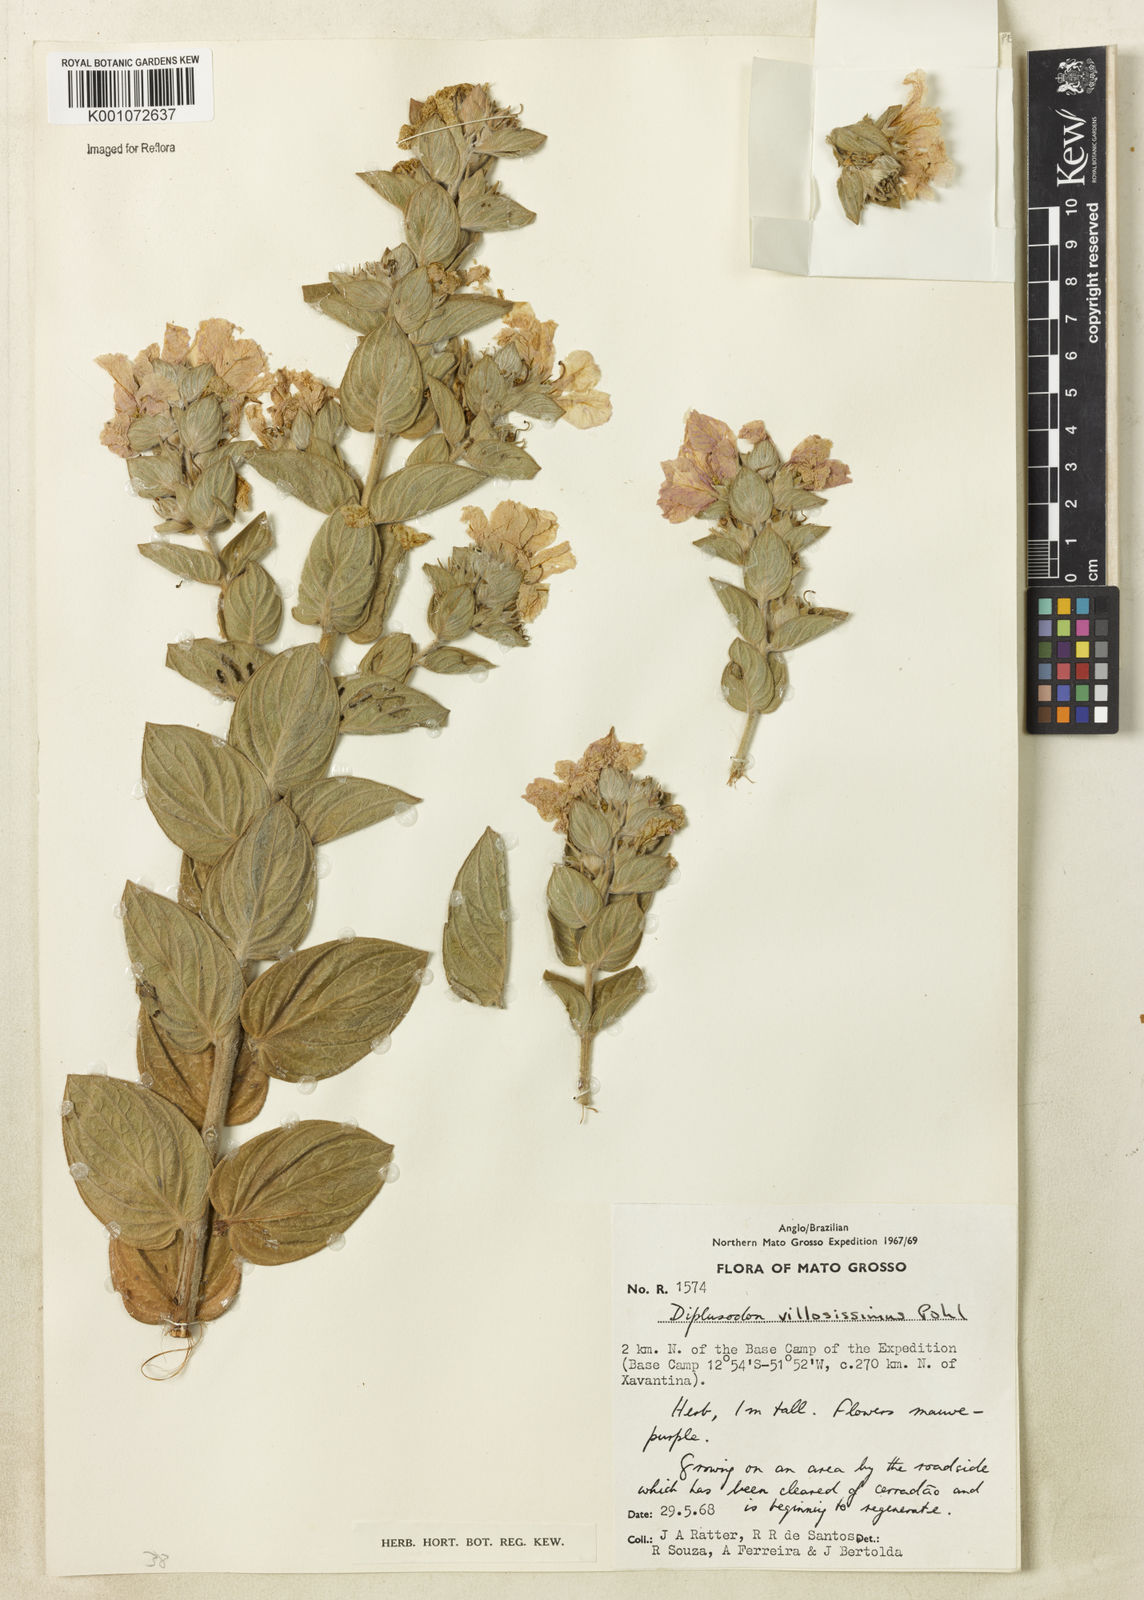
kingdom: Plantae
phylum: Tracheophyta
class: Magnoliopsida
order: Myrtales
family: Lythraceae
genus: Diplusodon
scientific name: Diplusodon villosissimus
